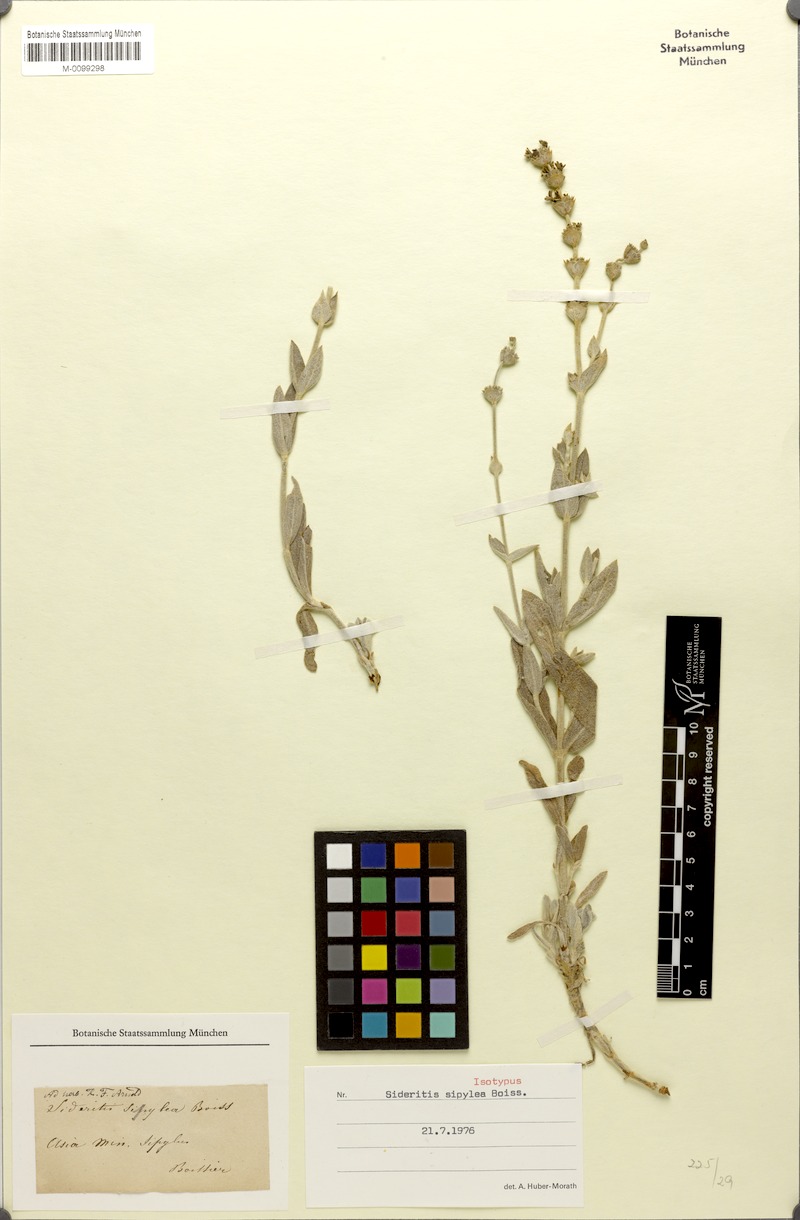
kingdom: Plantae
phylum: Tracheophyta
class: Magnoliopsida
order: Lamiales
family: Lamiaceae
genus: Sideritis
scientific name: Sideritis sipylea
